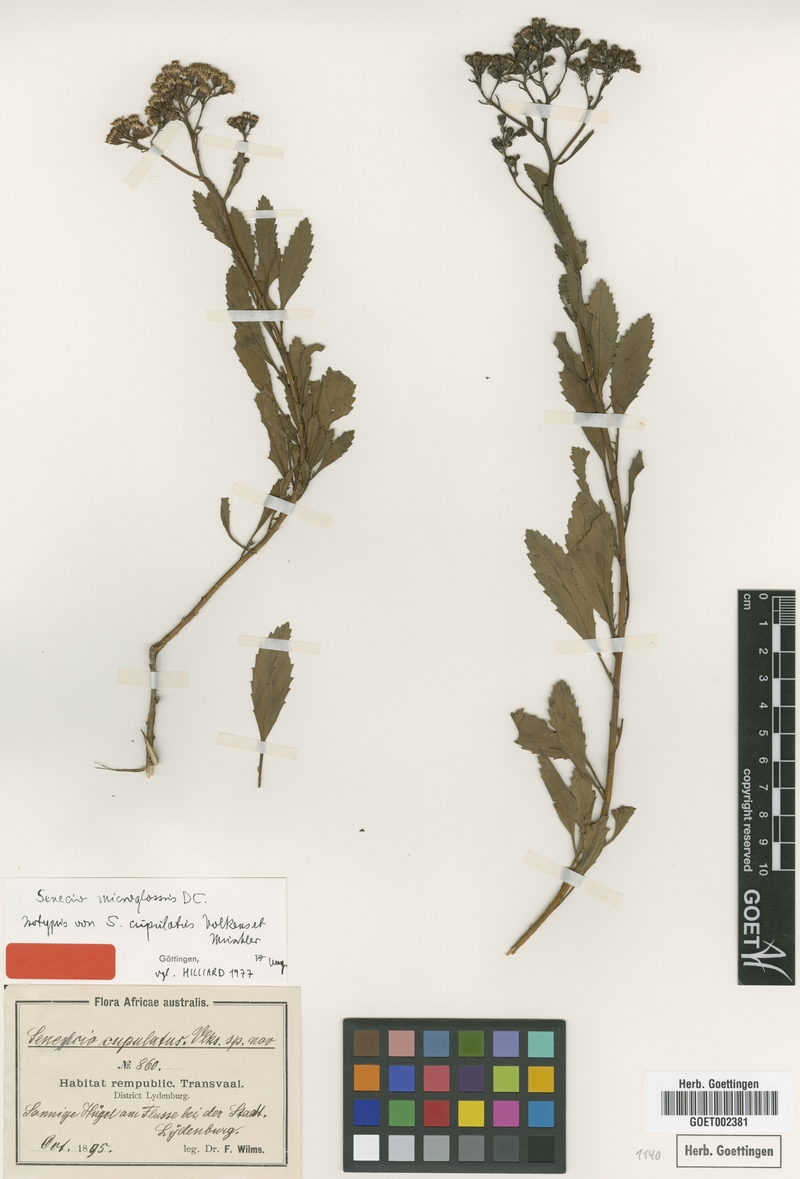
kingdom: Plantae
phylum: Tracheophyta
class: Magnoliopsida
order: Asterales
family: Asteraceae
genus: Senecio
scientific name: Senecio microglossus
